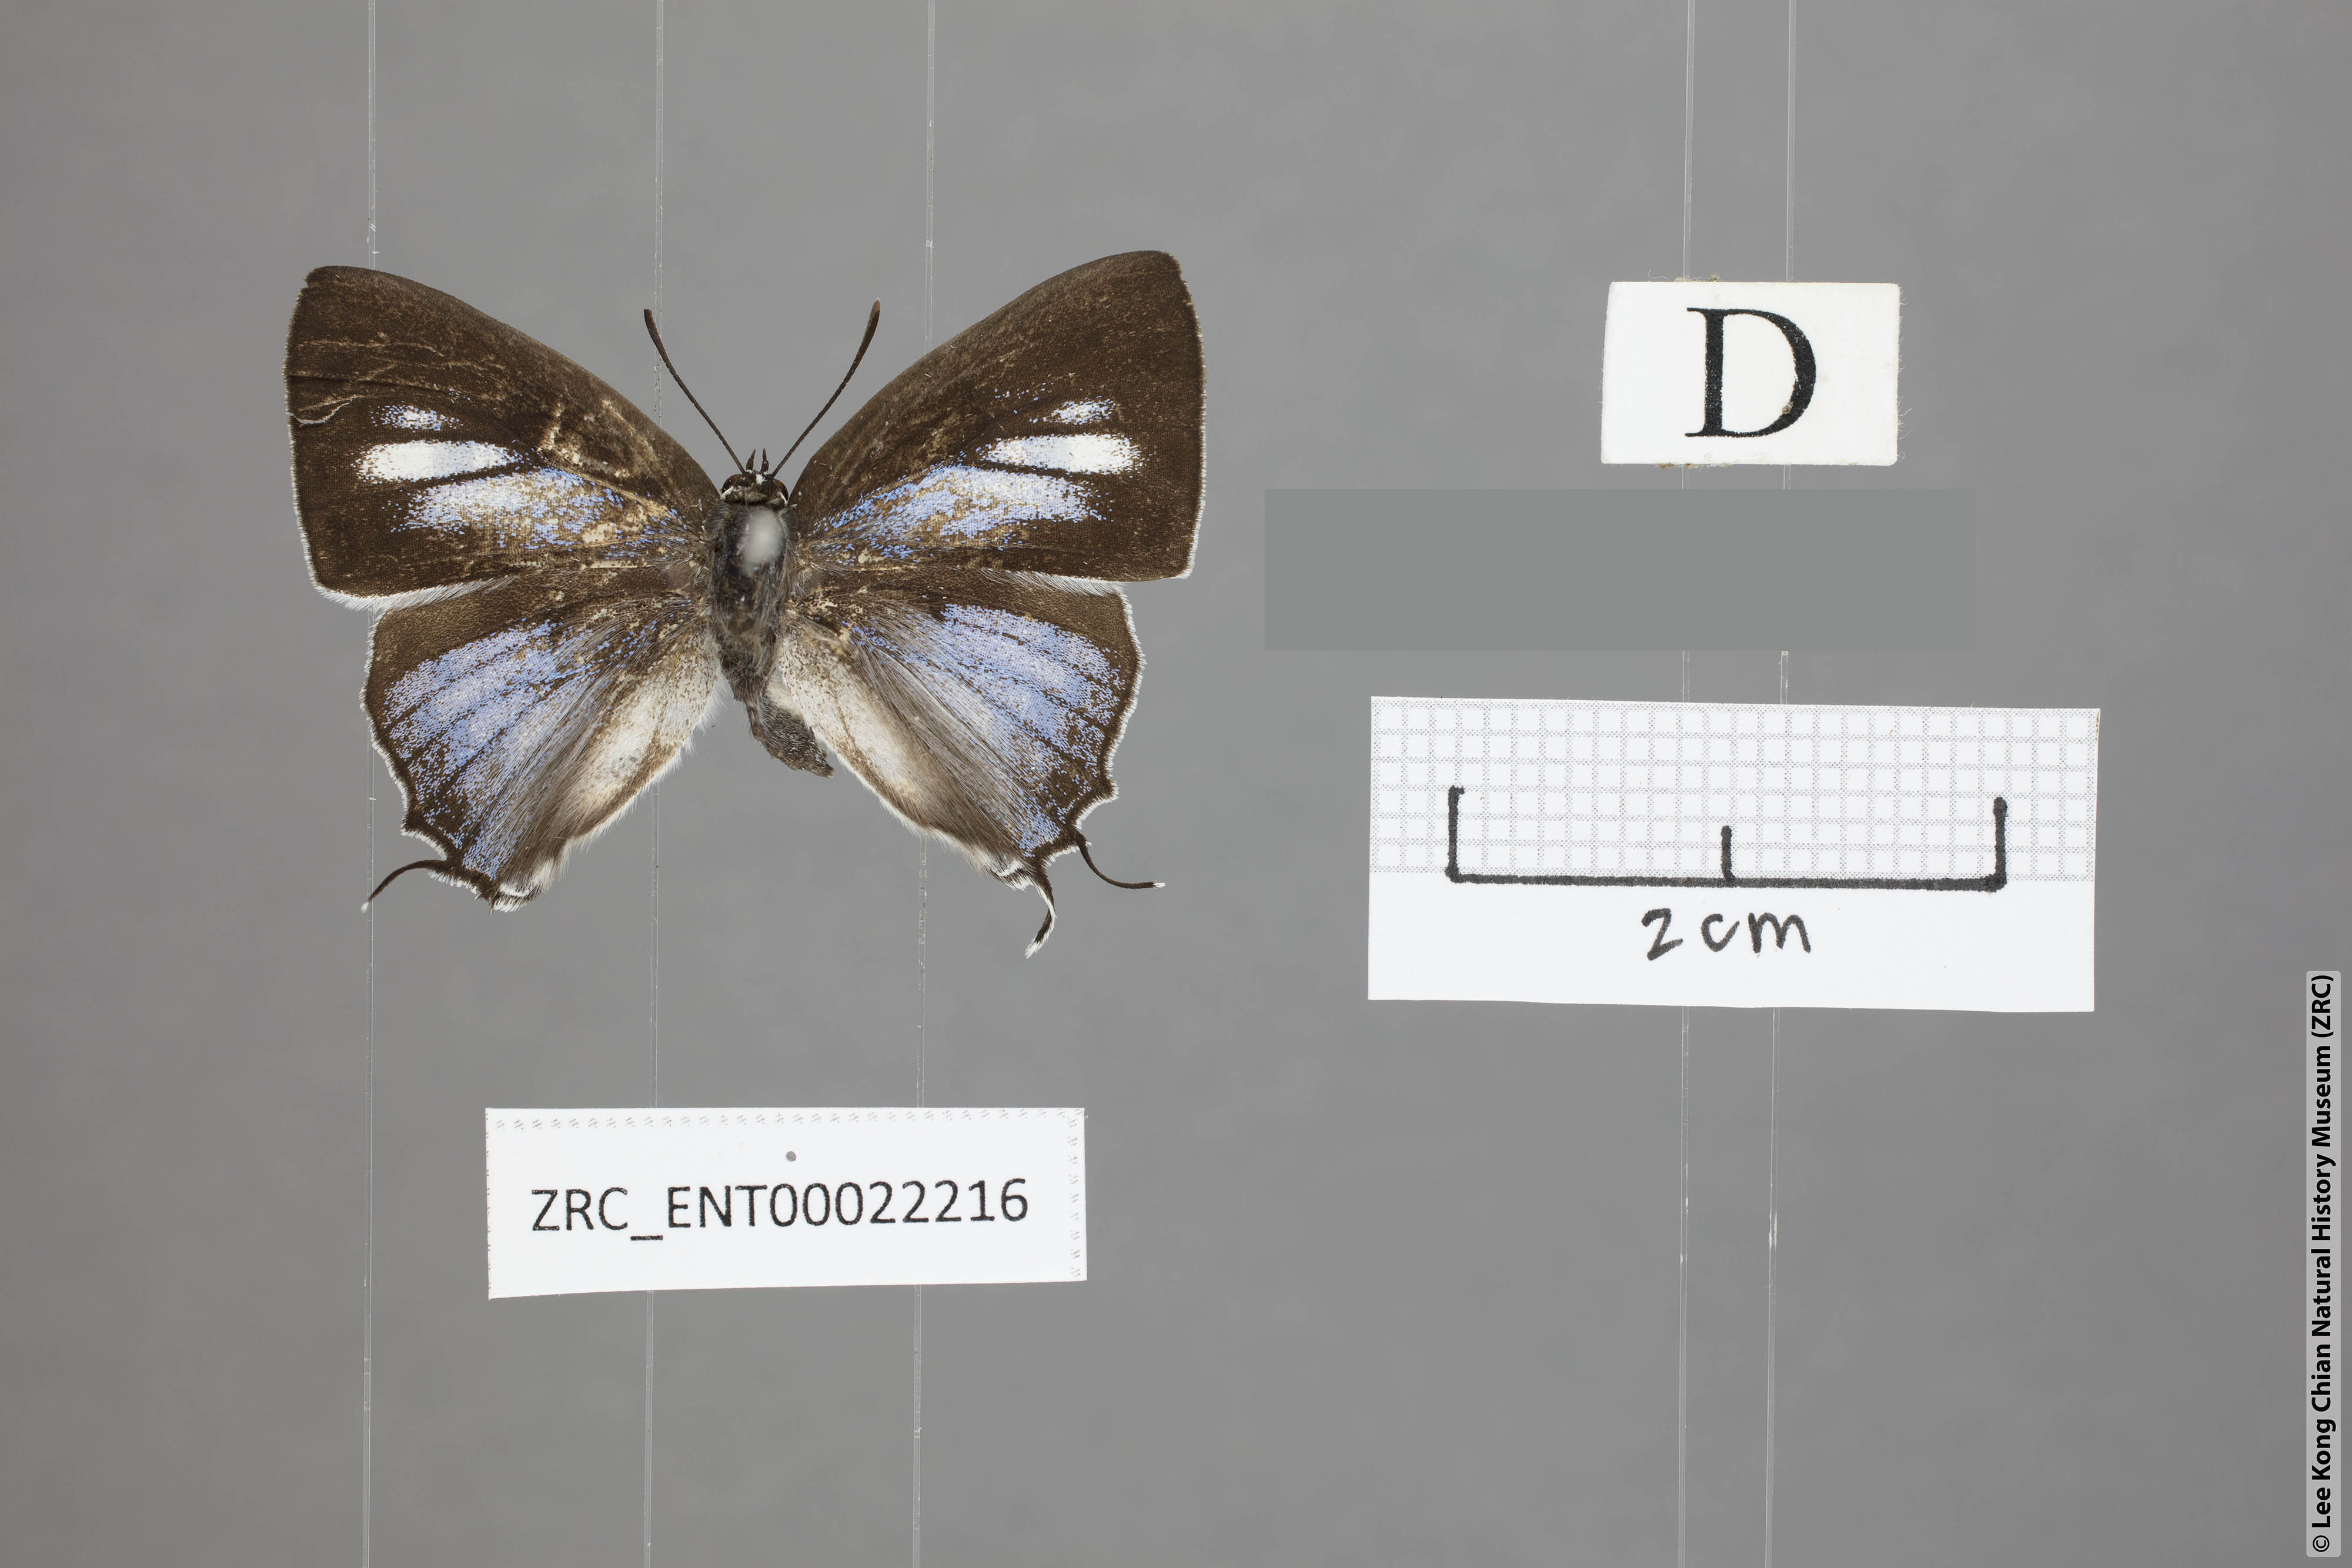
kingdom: Animalia
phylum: Arthropoda
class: Insecta
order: Lepidoptera
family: Lycaenidae
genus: Tajuria
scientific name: Tajuria maculatus
